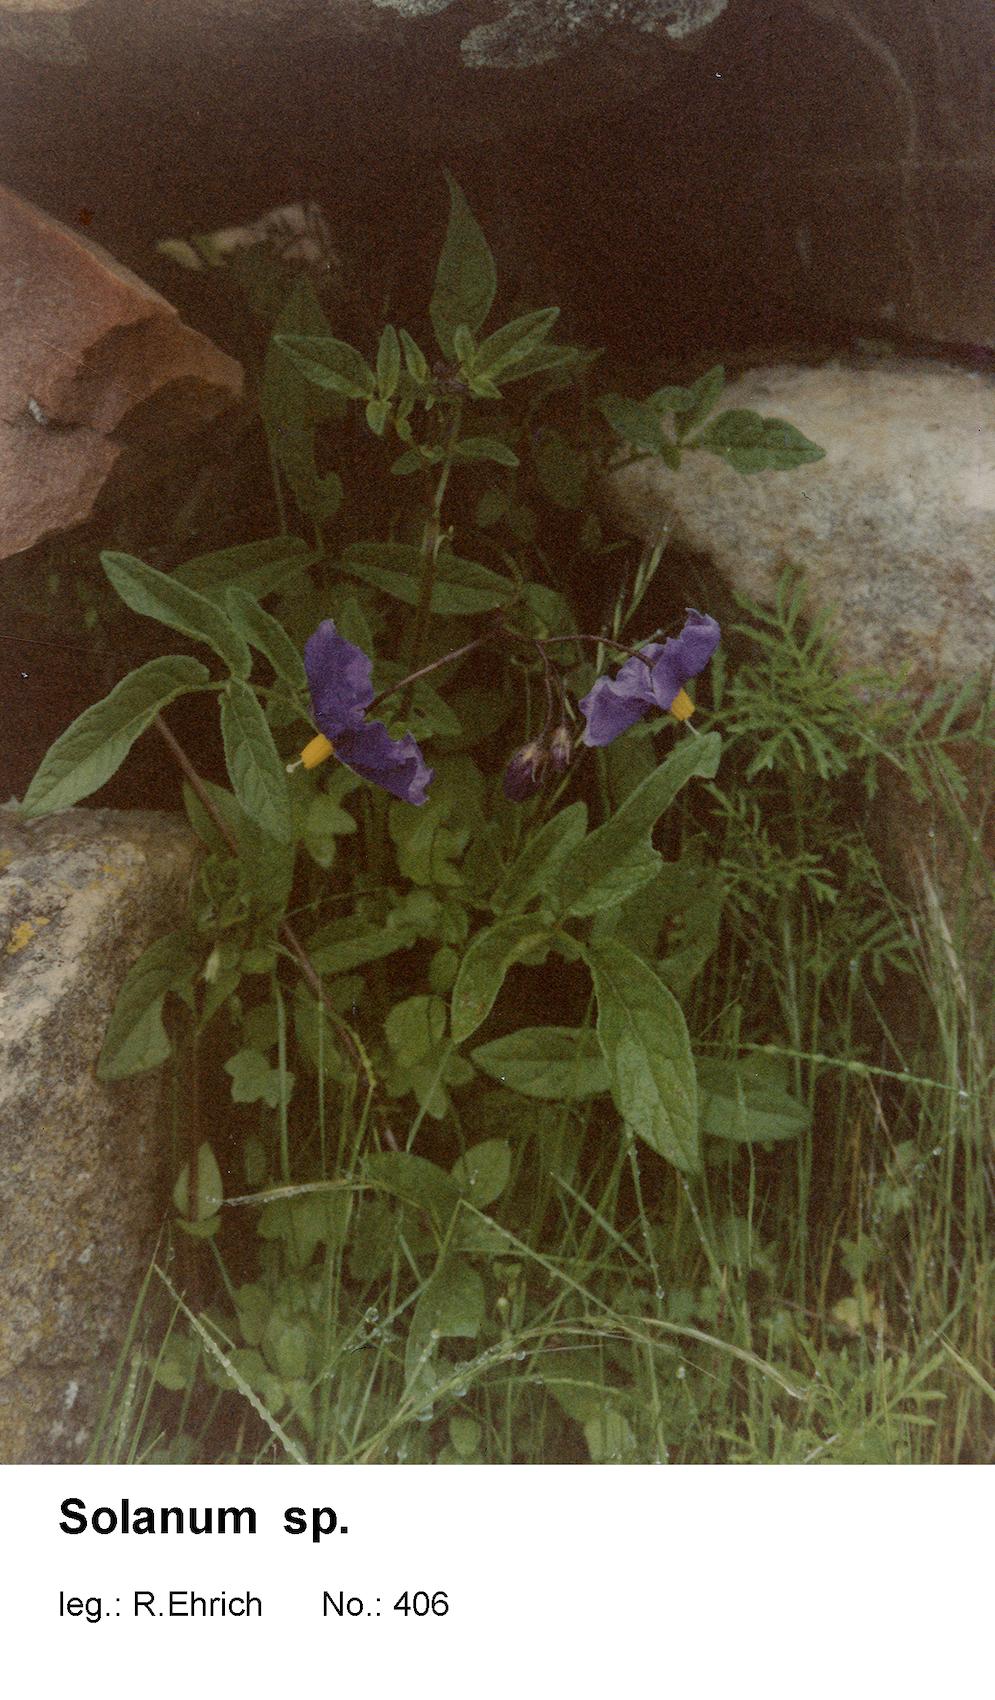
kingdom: Plantae
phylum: Tracheophyta
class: Magnoliopsida
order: Solanales
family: Solanaceae
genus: Solanum
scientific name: Solanum
